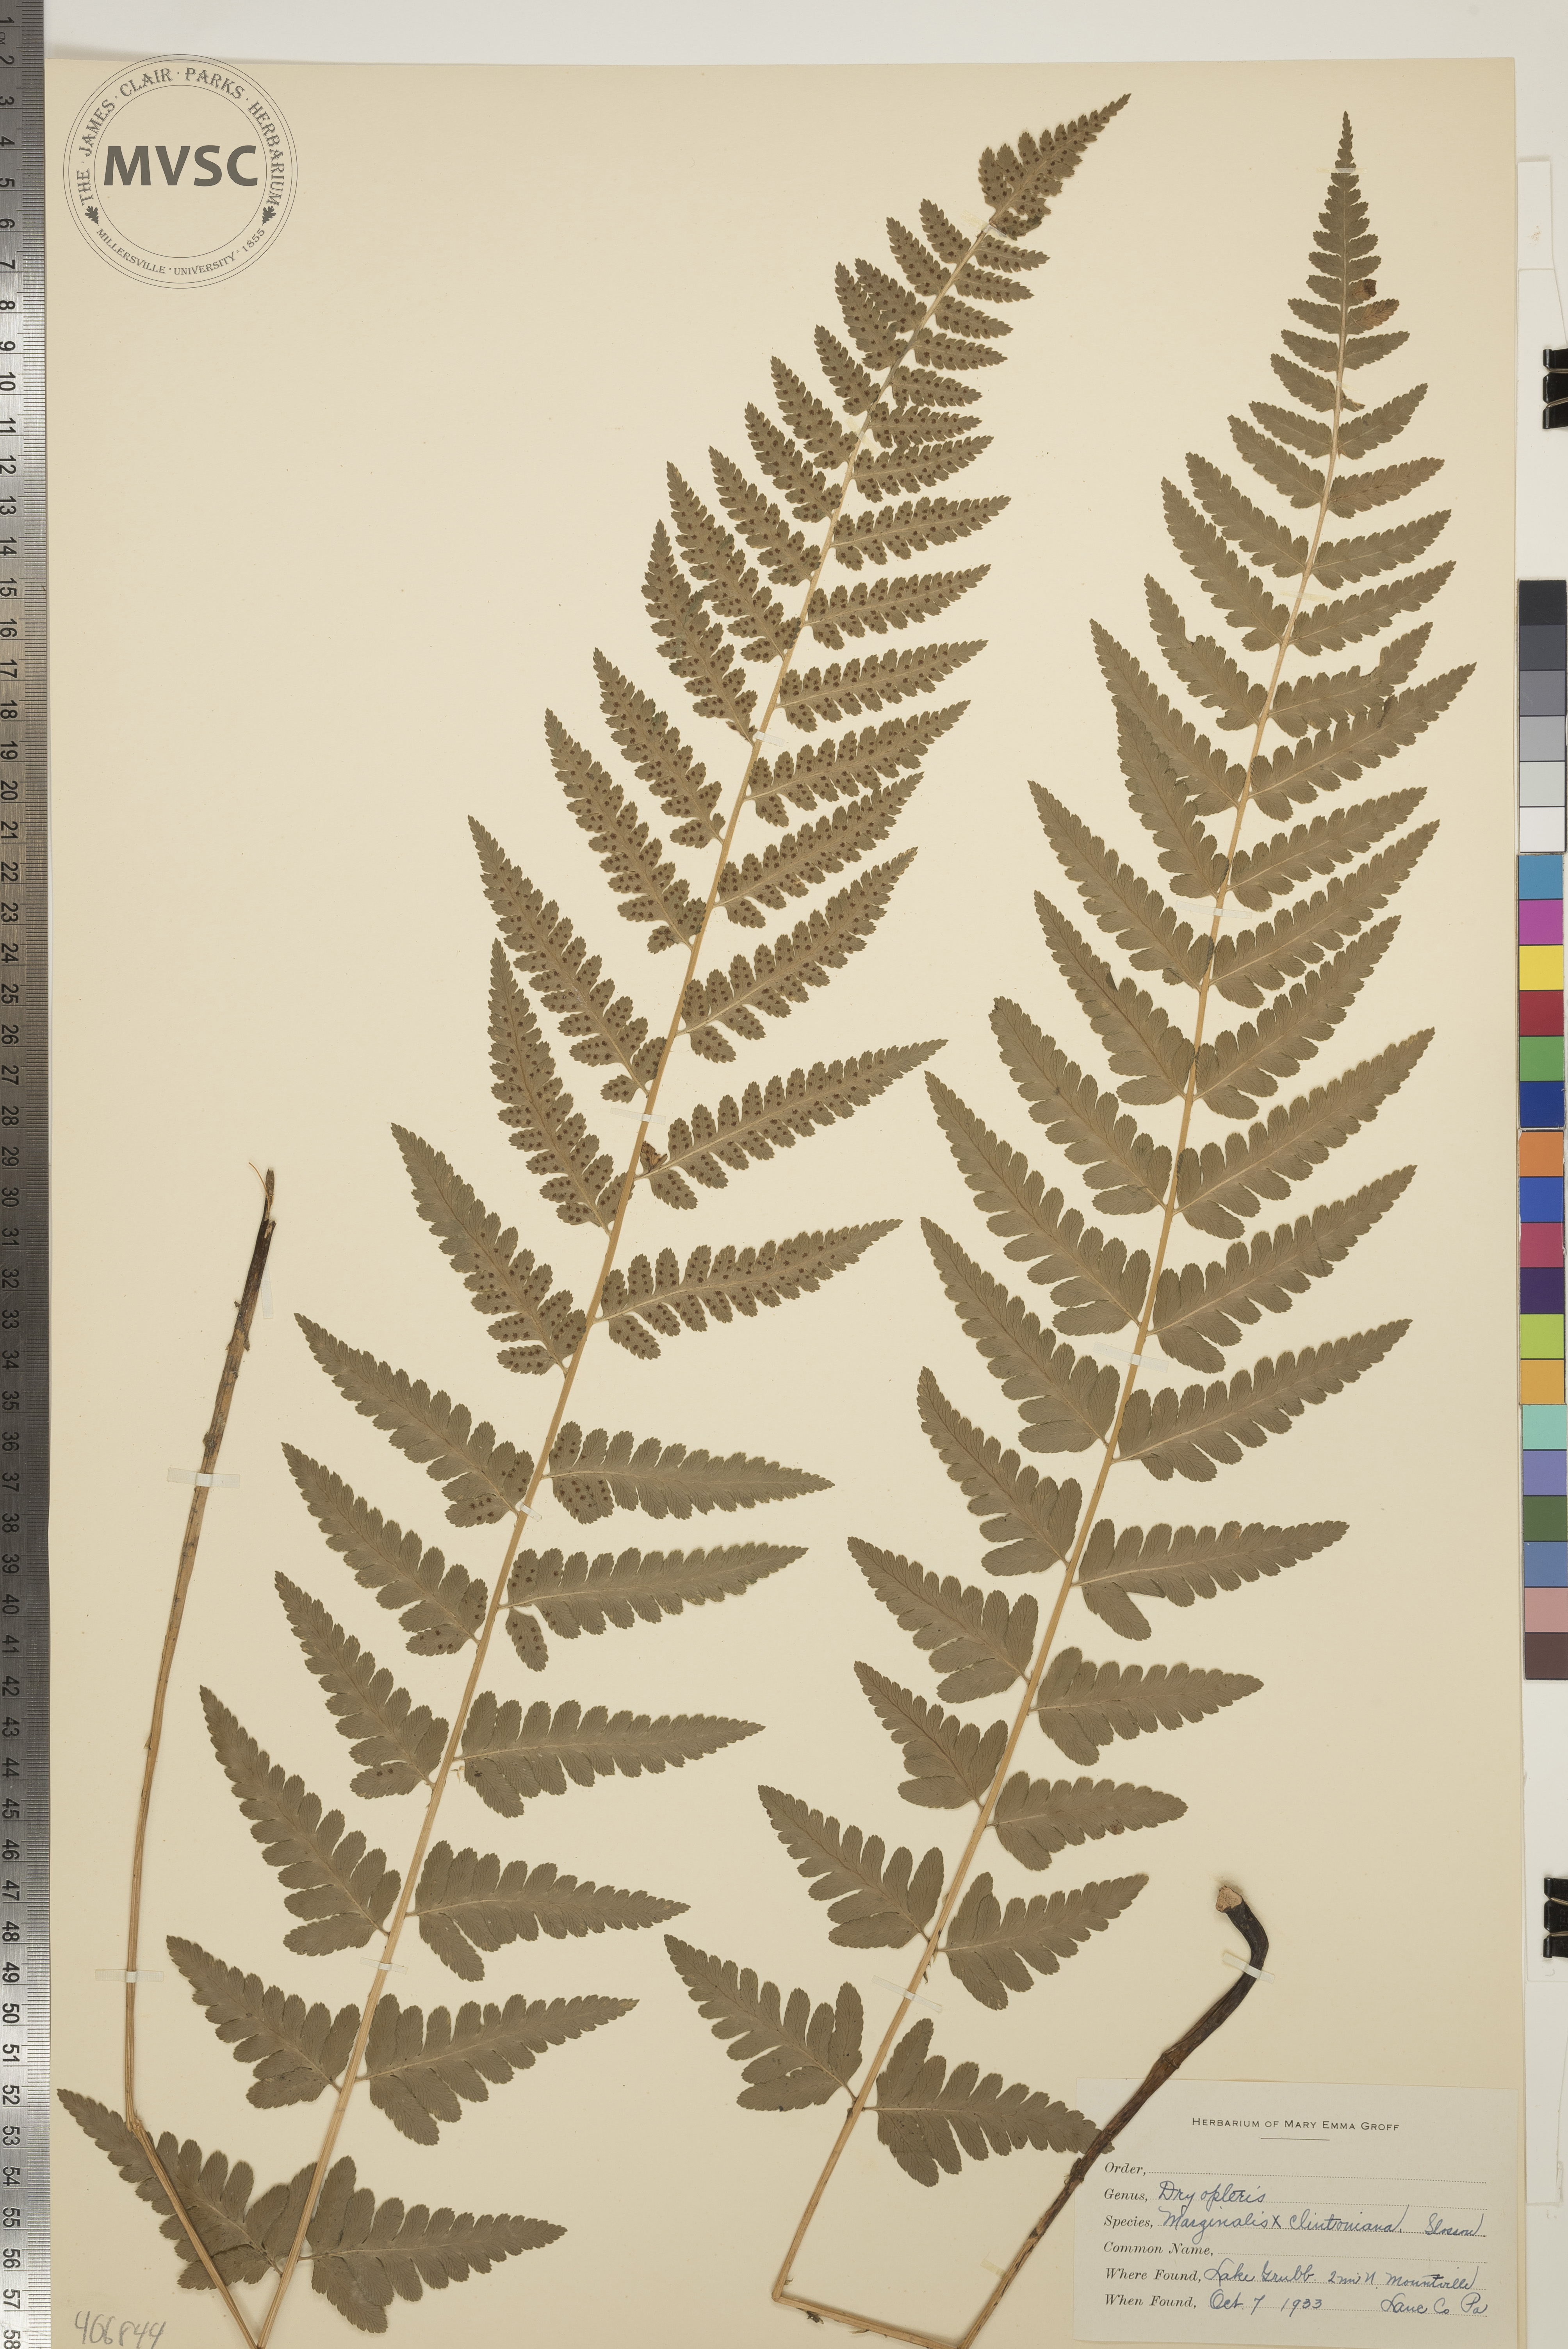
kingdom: Plantae
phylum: Tracheophyta
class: Polypodiopsida
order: Polypodiales
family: Dryopteridaceae
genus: Dryopteris
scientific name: Dryopteris
